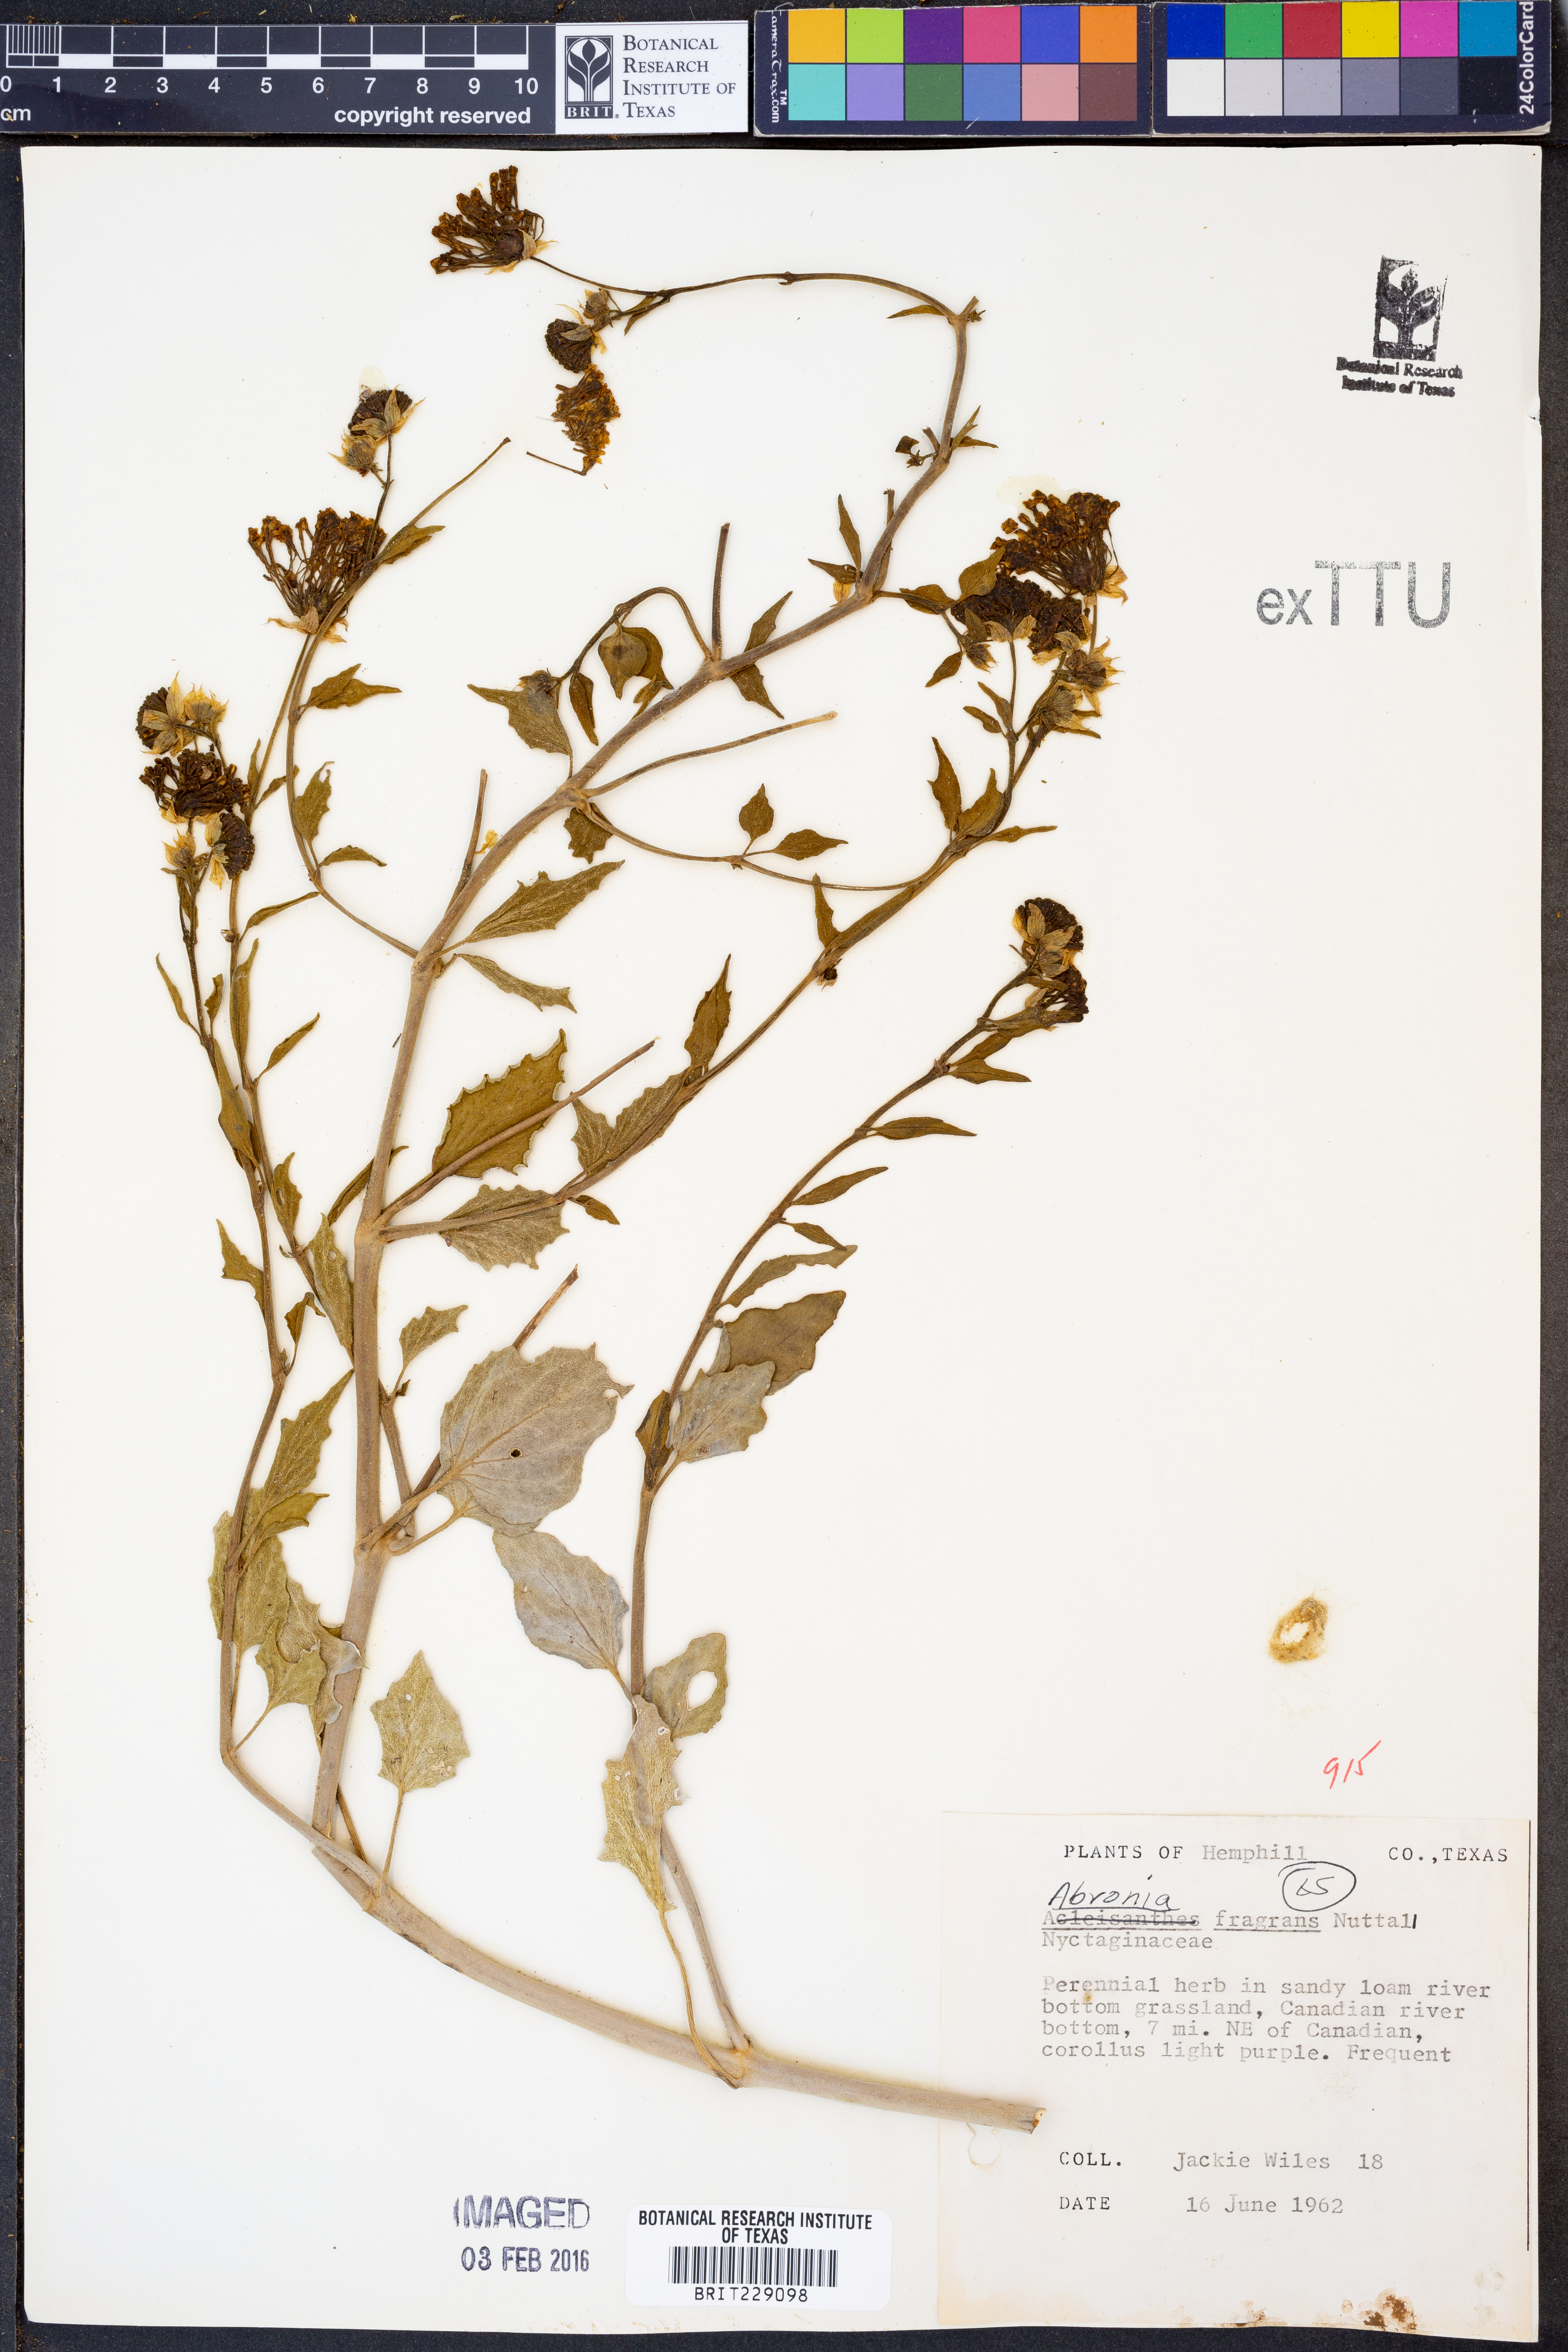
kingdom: Plantae
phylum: Tracheophyta
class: Magnoliopsida
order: Caryophyllales
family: Nyctaginaceae
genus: Abronia
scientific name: Abronia fragrans
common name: Fragrant sand-verbena
